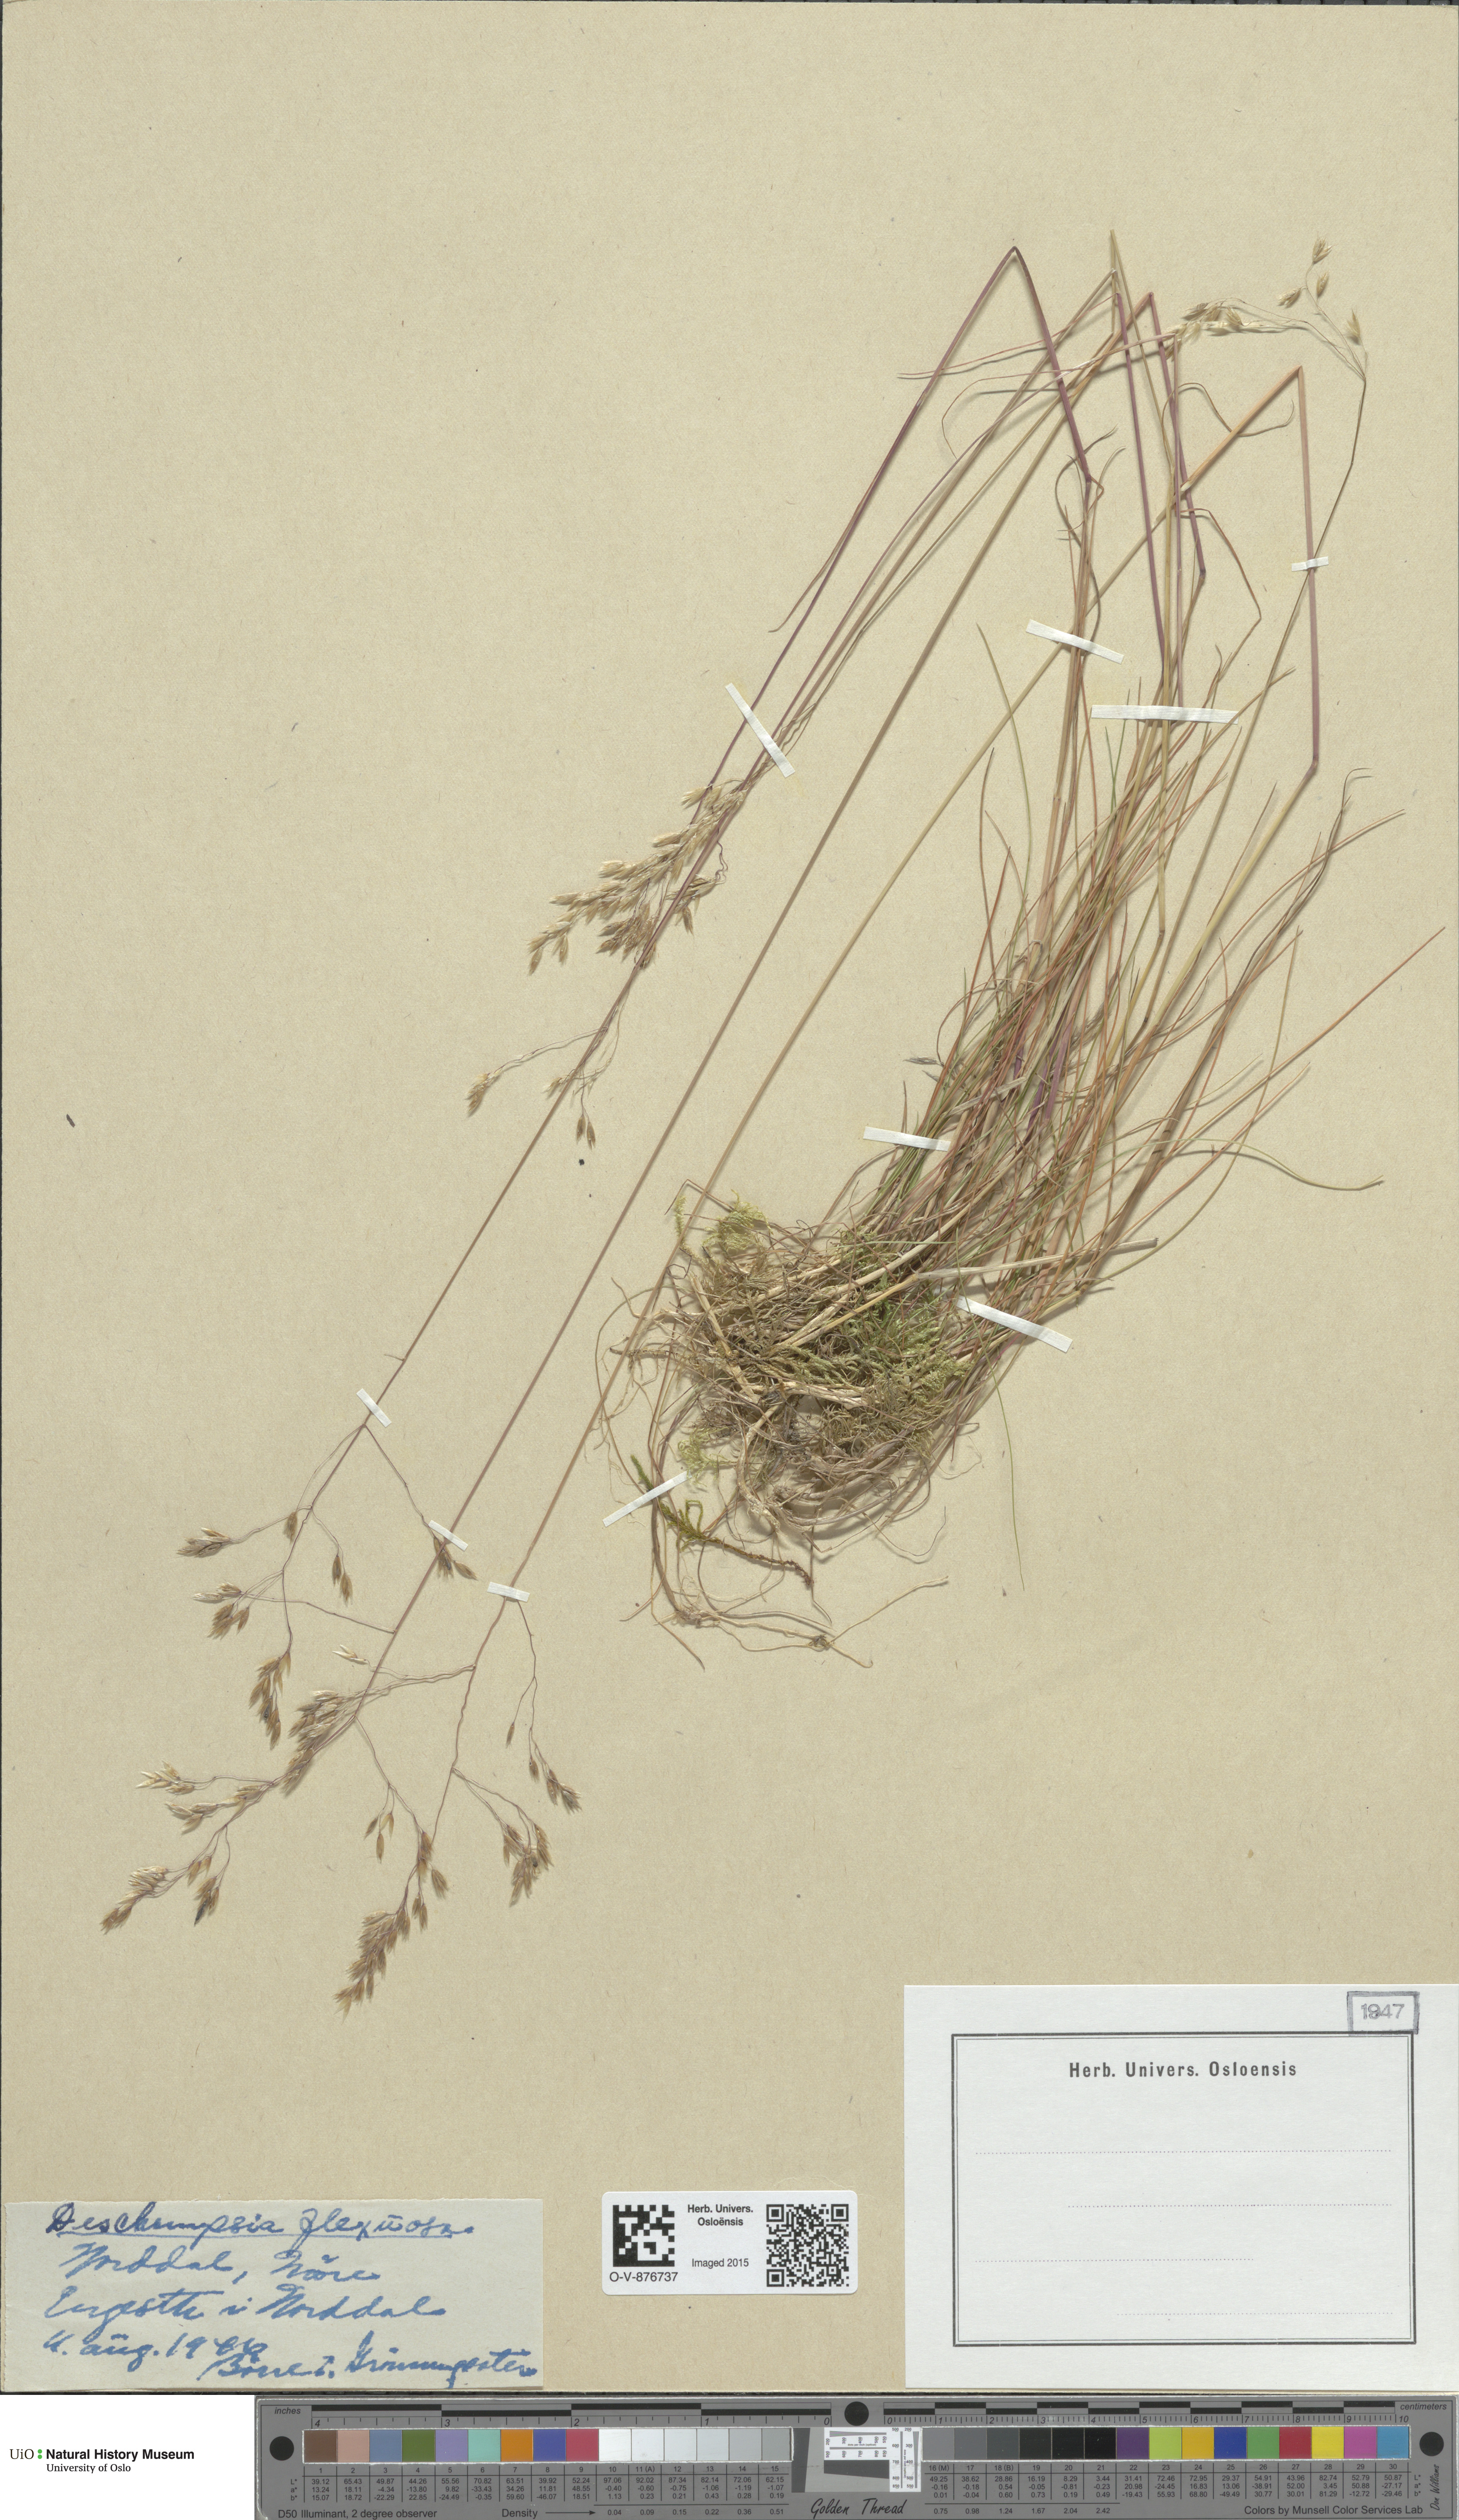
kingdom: Plantae
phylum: Tracheophyta
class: Liliopsida
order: Poales
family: Poaceae
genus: Avenella
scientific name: Avenella flexuosa
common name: Wavy hairgrass
